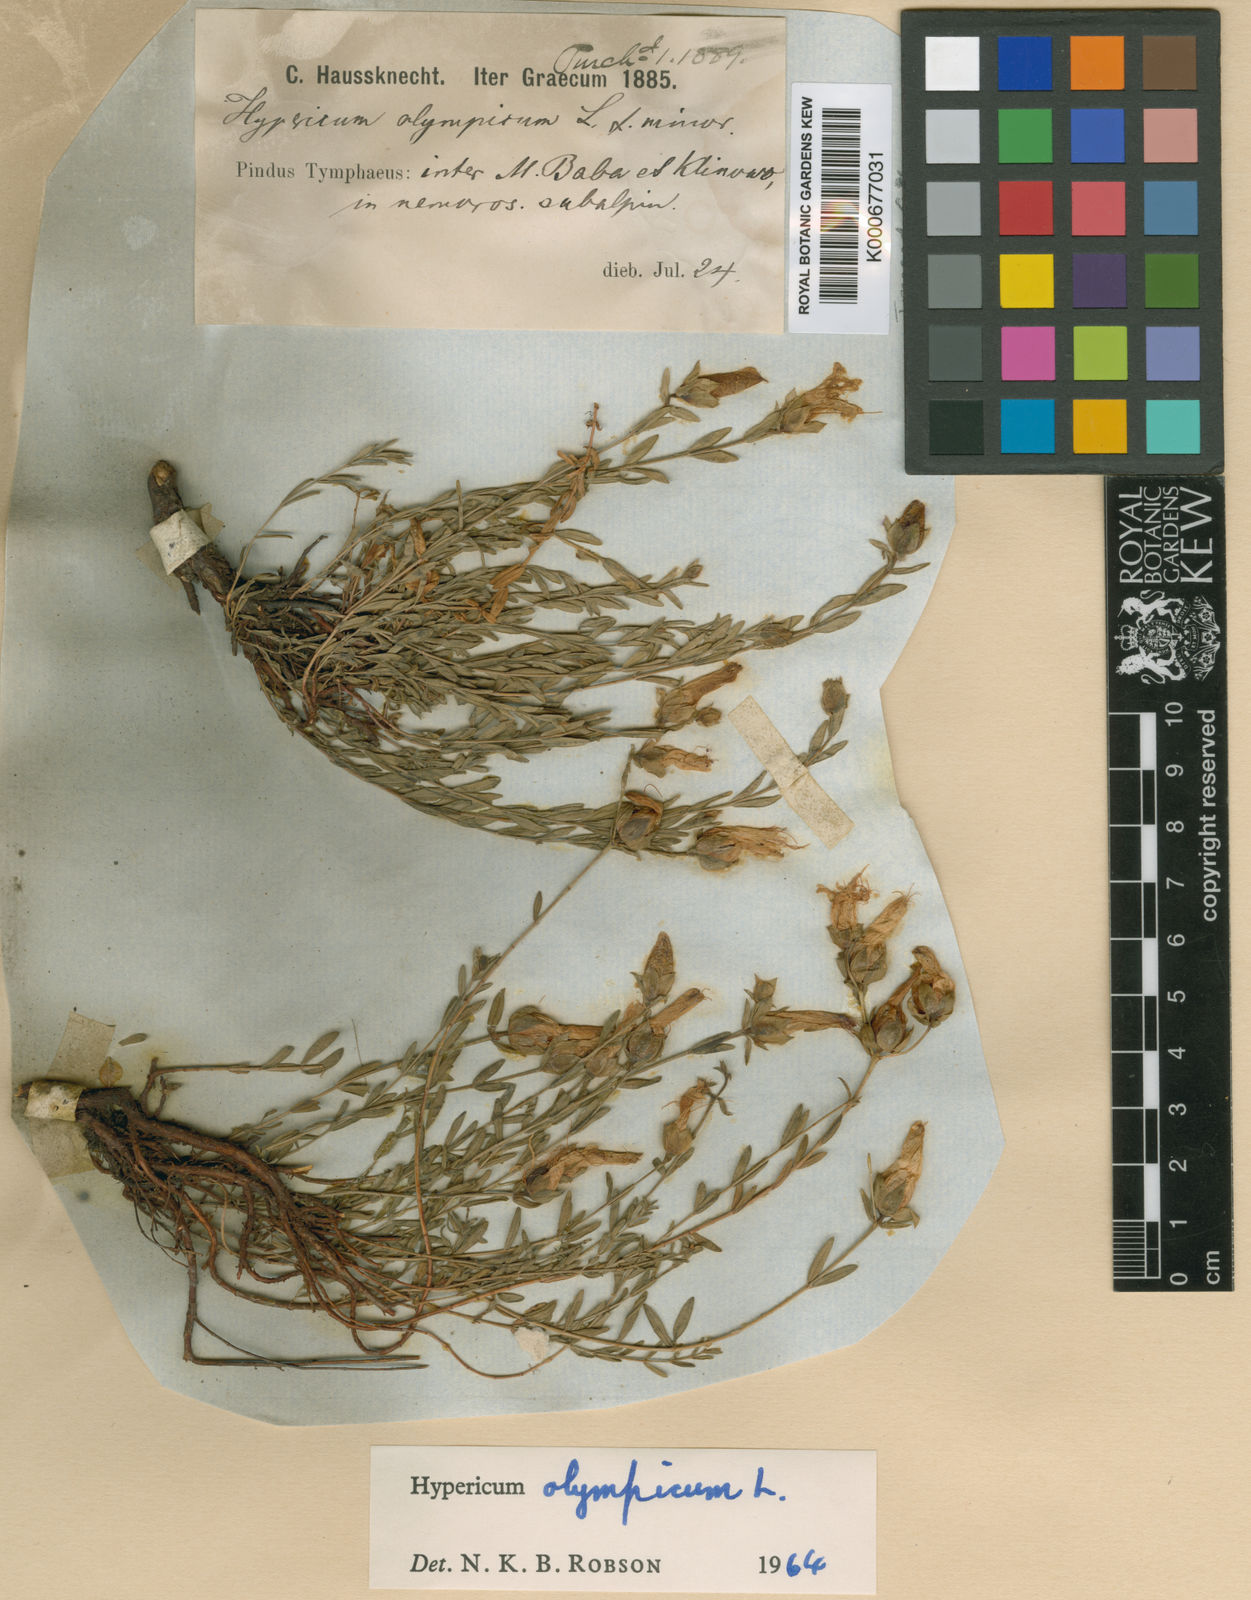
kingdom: Plantae
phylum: Tracheophyta
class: Magnoliopsida
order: Malpighiales
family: Hypericaceae
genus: Hypericum
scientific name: Hypericum olympicum
